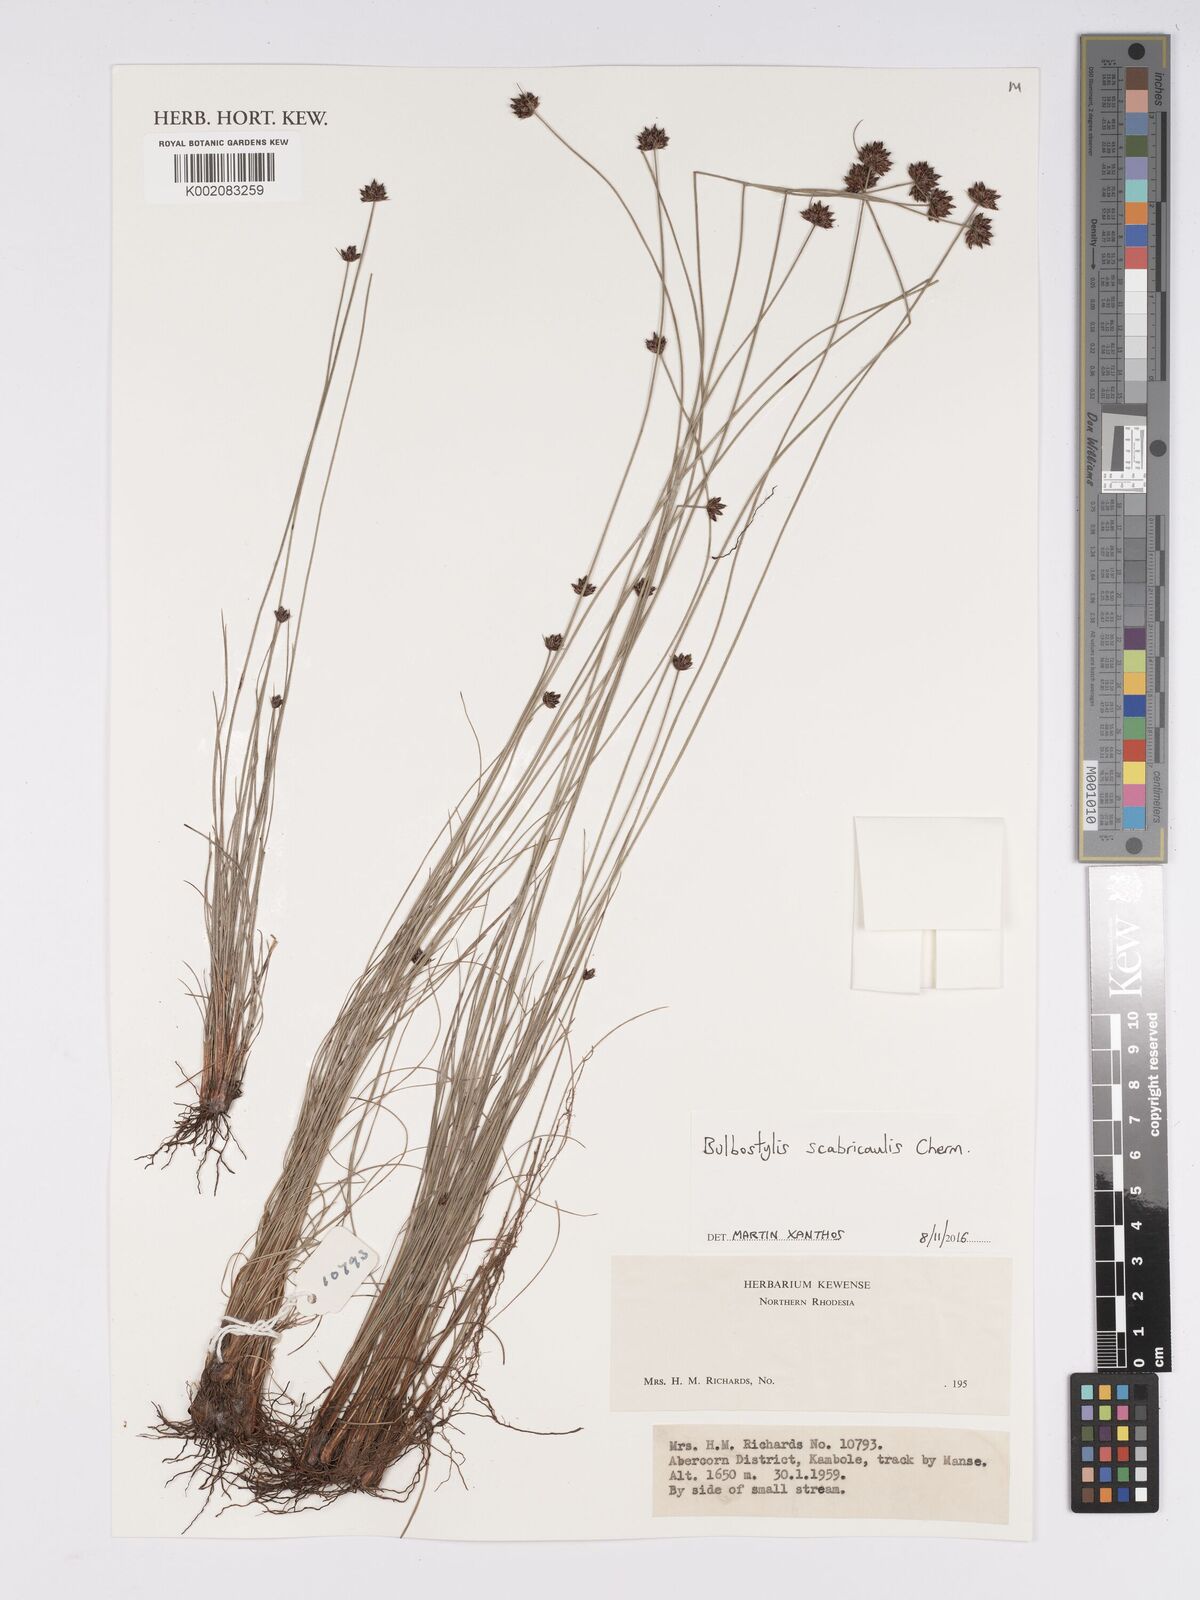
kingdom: Plantae
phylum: Tracheophyta
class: Liliopsida
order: Poales
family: Cyperaceae
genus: Bulbostylis
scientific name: Bulbostylis scabricaulis
